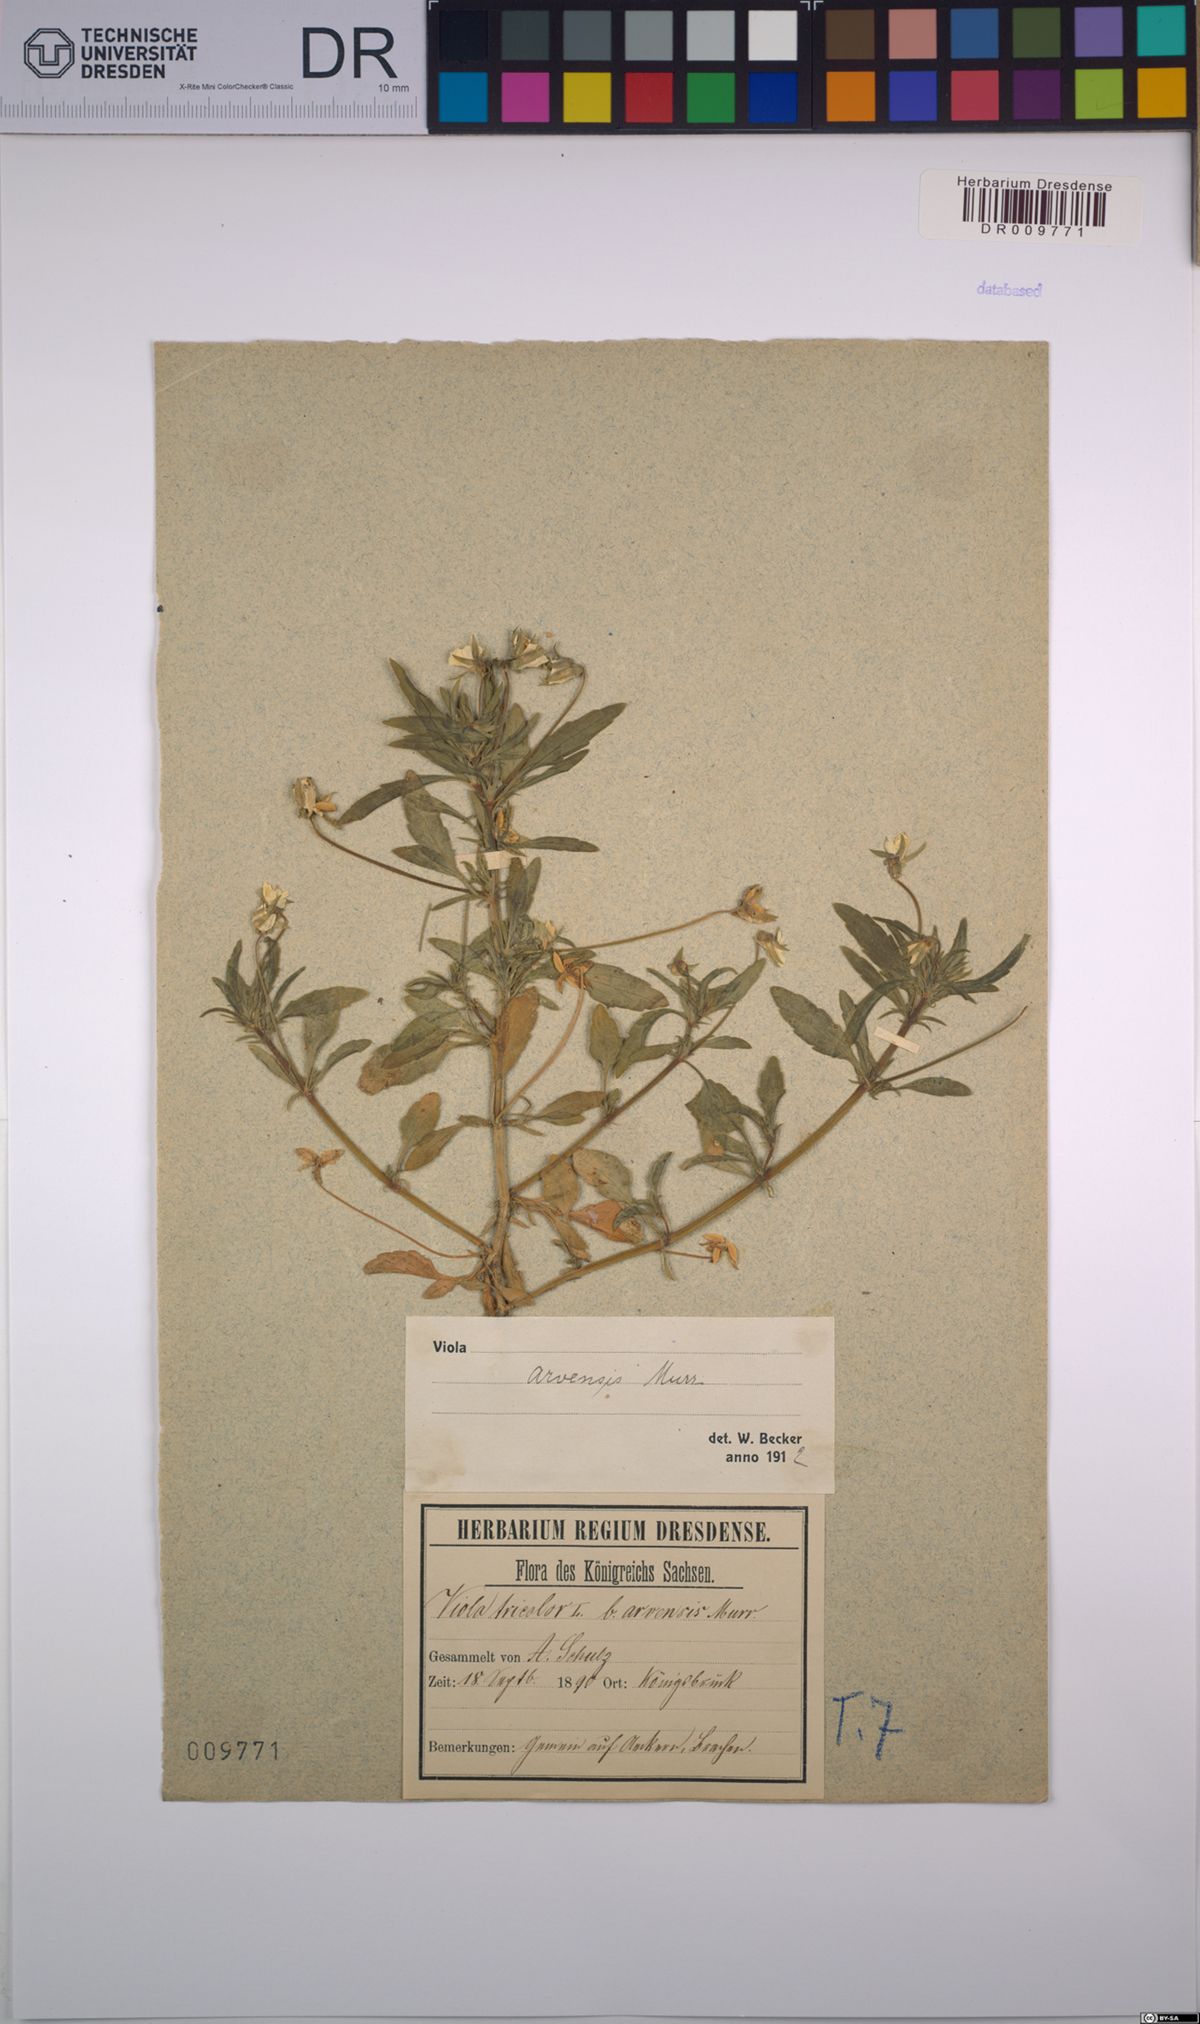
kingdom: Plantae
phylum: Tracheophyta
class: Magnoliopsida
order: Malpighiales
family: Violaceae
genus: Viola
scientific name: Viola arvensis
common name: Field pansy
